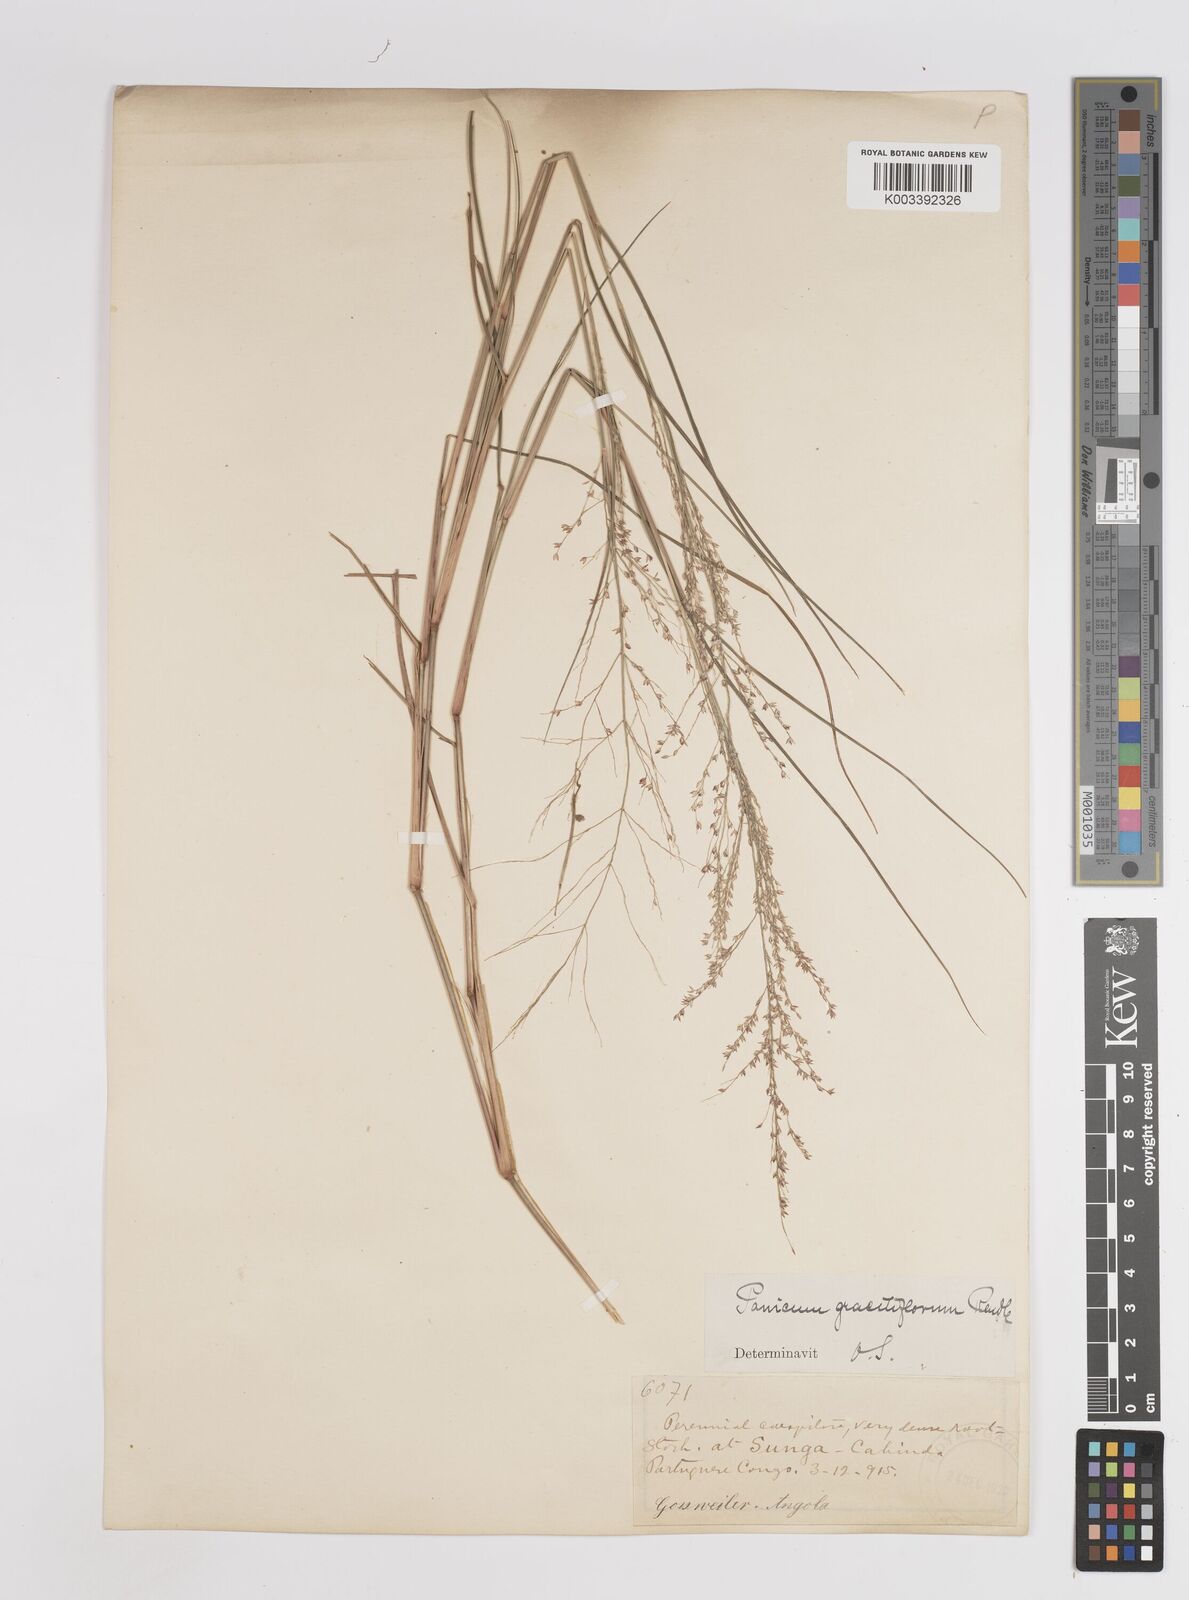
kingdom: Plantae
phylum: Tracheophyta
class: Liliopsida
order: Poales
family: Poaceae
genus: Panicum
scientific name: Panicum fluviicola
